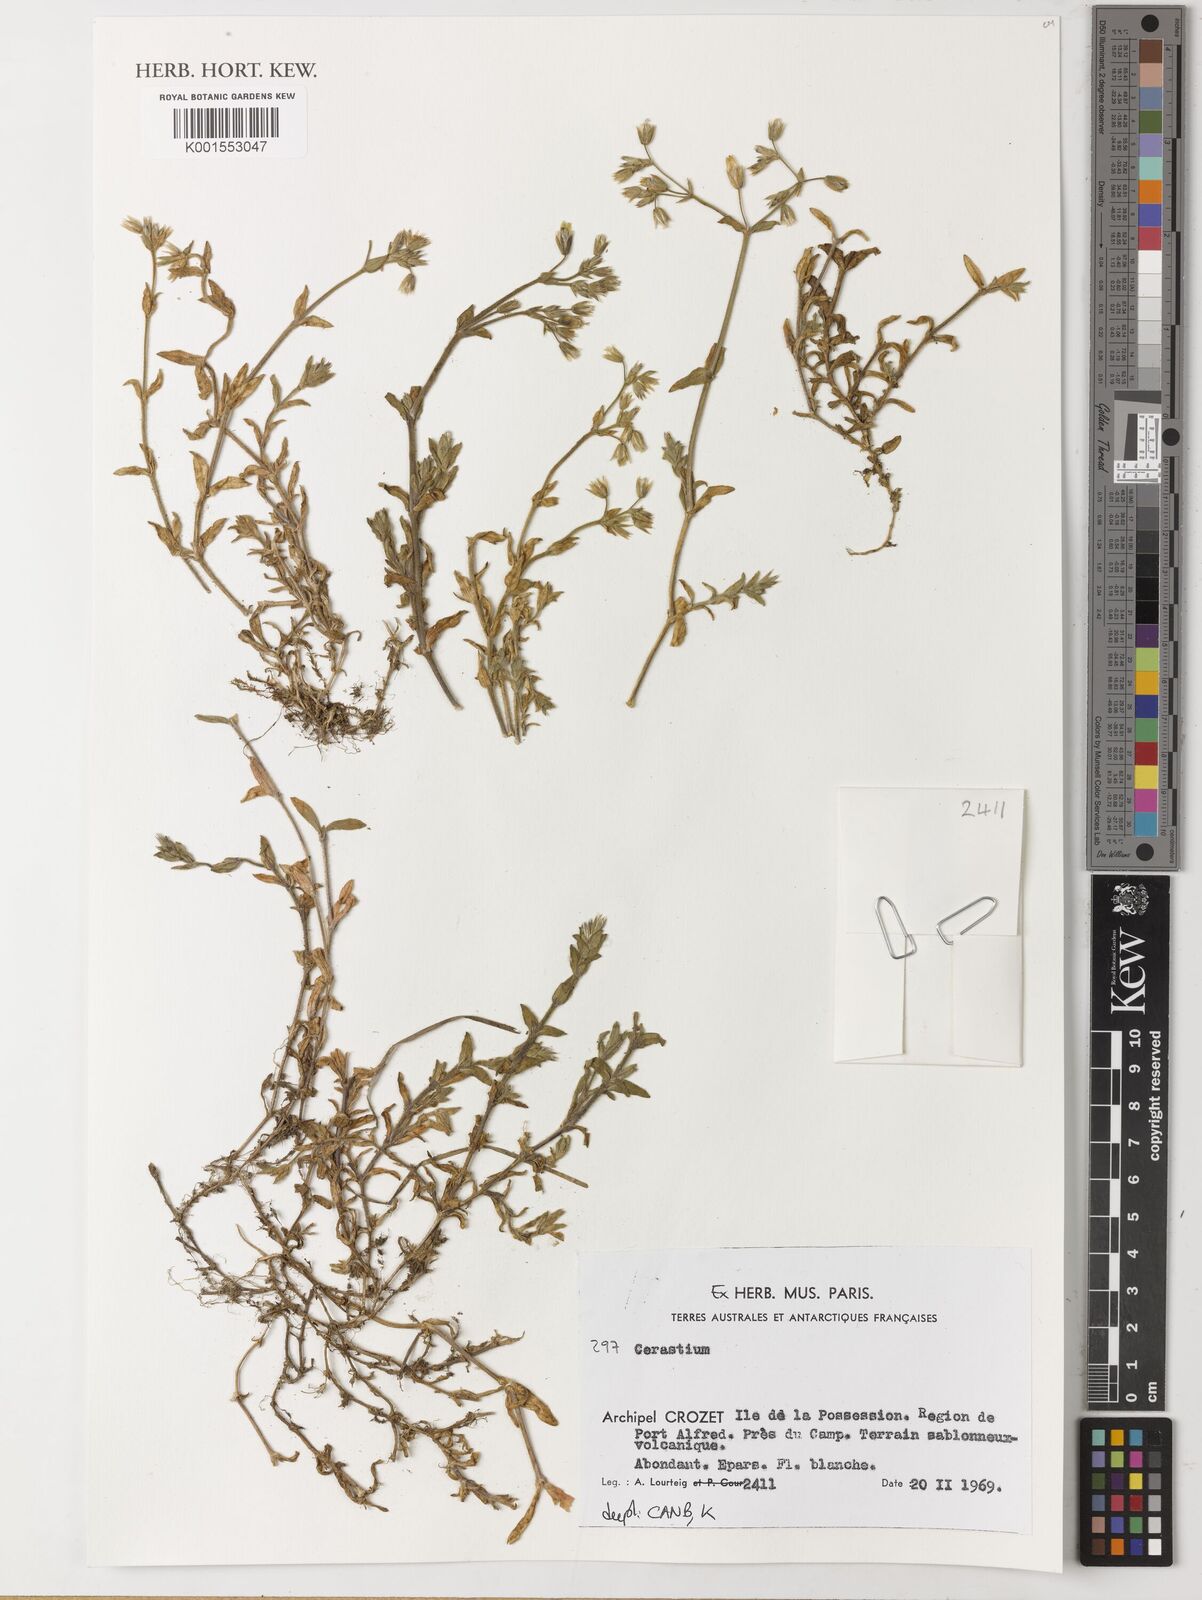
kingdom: Plantae
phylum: Tracheophyta
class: Magnoliopsida
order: Caryophyllales
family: Caryophyllaceae
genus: Cerastium
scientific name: Cerastium
